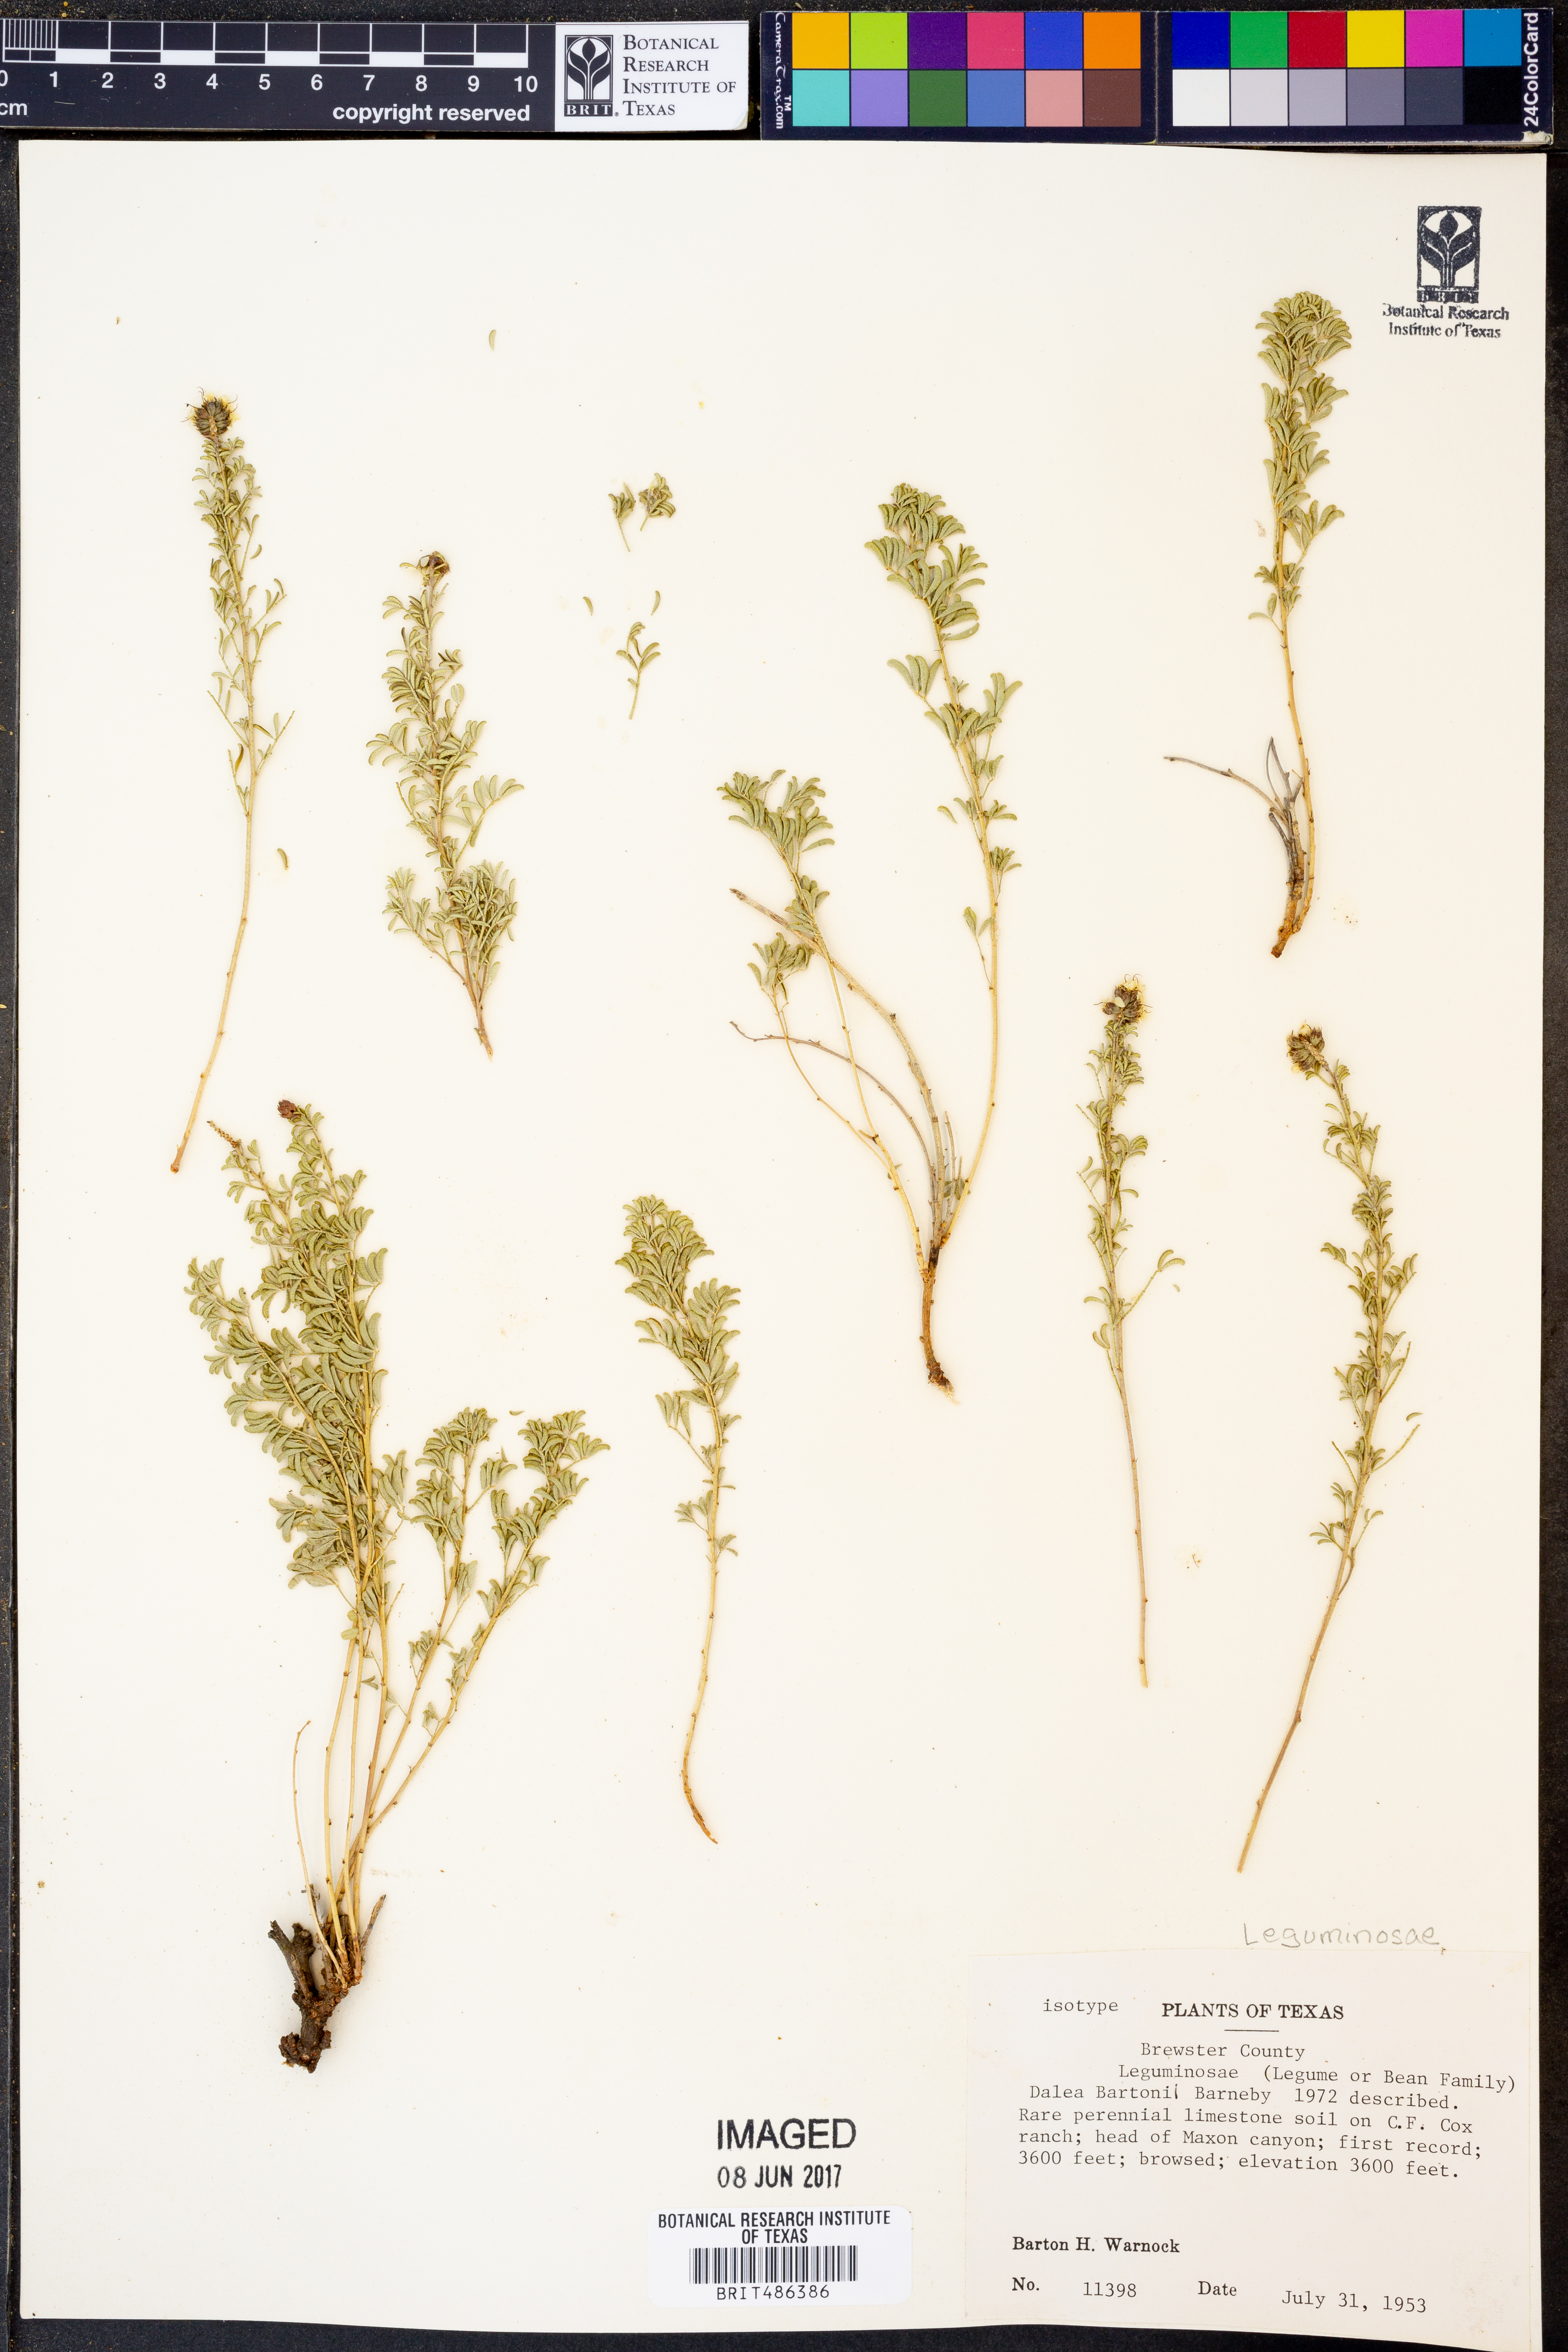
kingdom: Plantae
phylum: Tracheophyta
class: Magnoliopsida
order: Fabales
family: Fabaceae
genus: Dalea
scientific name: Dalea bartonii
